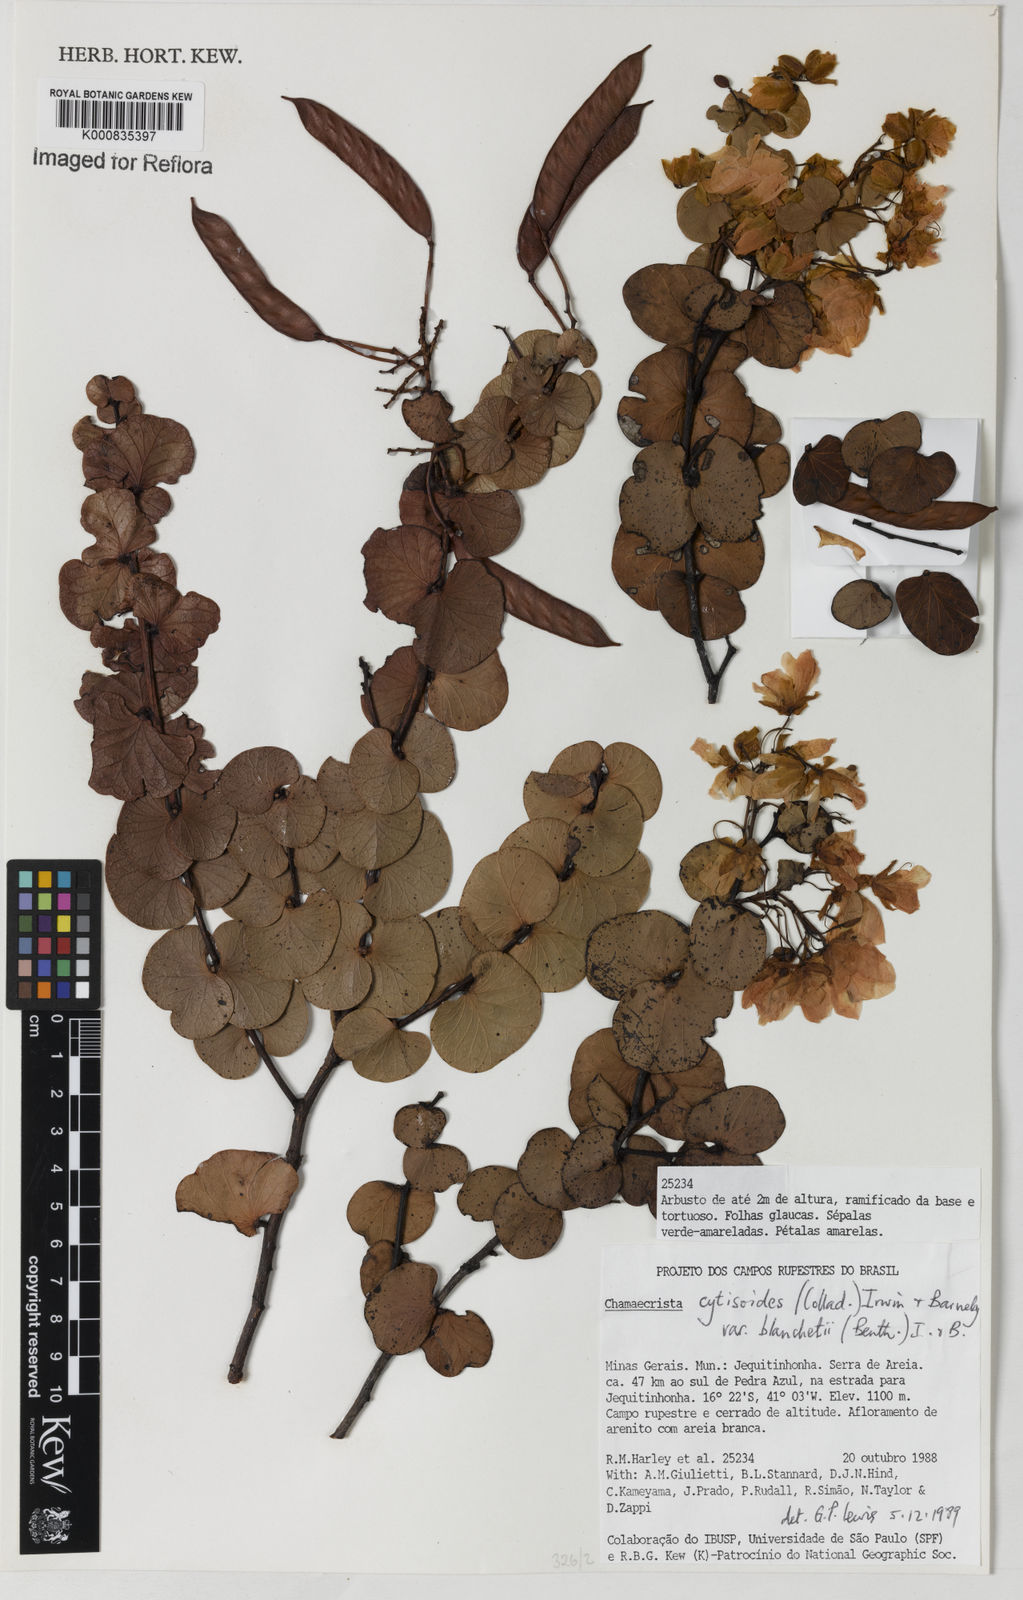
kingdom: Plantae
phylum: Tracheophyta
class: Magnoliopsida
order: Fabales
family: Fabaceae
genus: Chamaecrista
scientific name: Chamaecrista cytisoides
